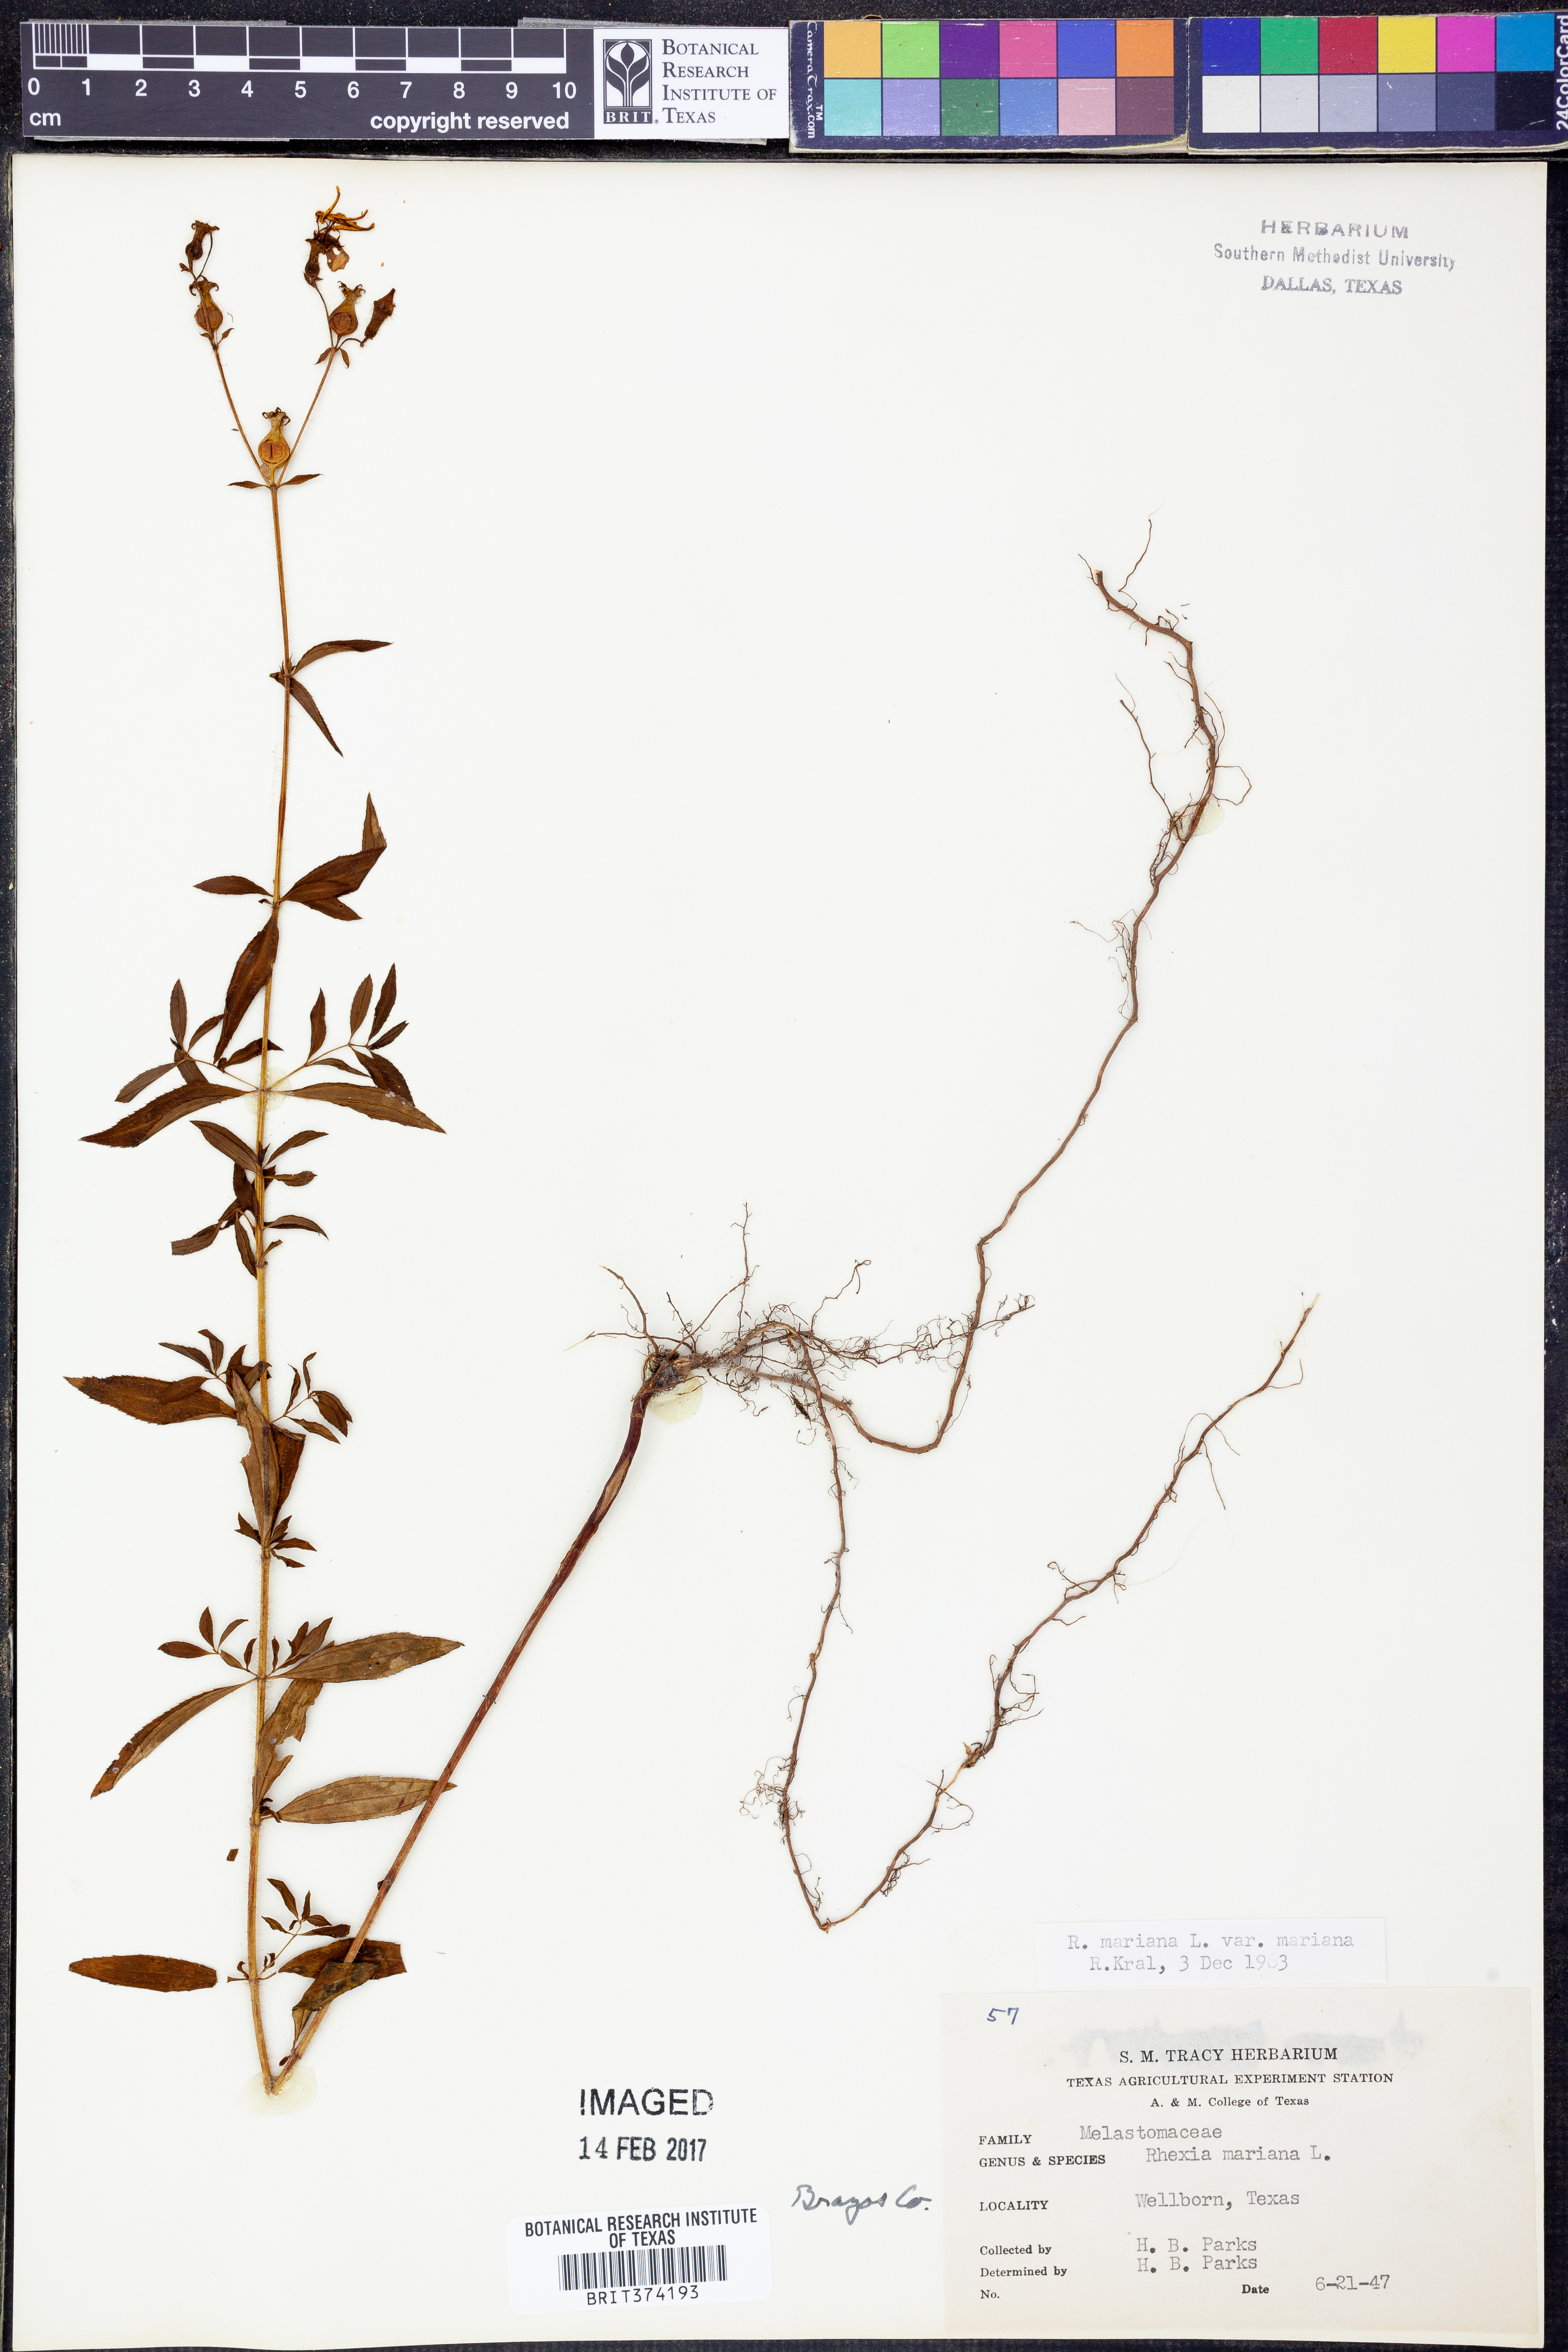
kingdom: Plantae
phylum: Tracheophyta
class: Magnoliopsida
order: Myrtales
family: Melastomataceae
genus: Rhexia
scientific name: Rhexia mariana
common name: Dull meadow-pitcher
